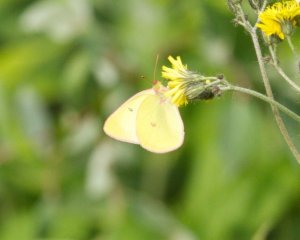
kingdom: Animalia
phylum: Arthropoda
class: Insecta
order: Lepidoptera
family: Pieridae
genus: Colias
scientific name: Colias interior
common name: Pink-edged Sulphur
